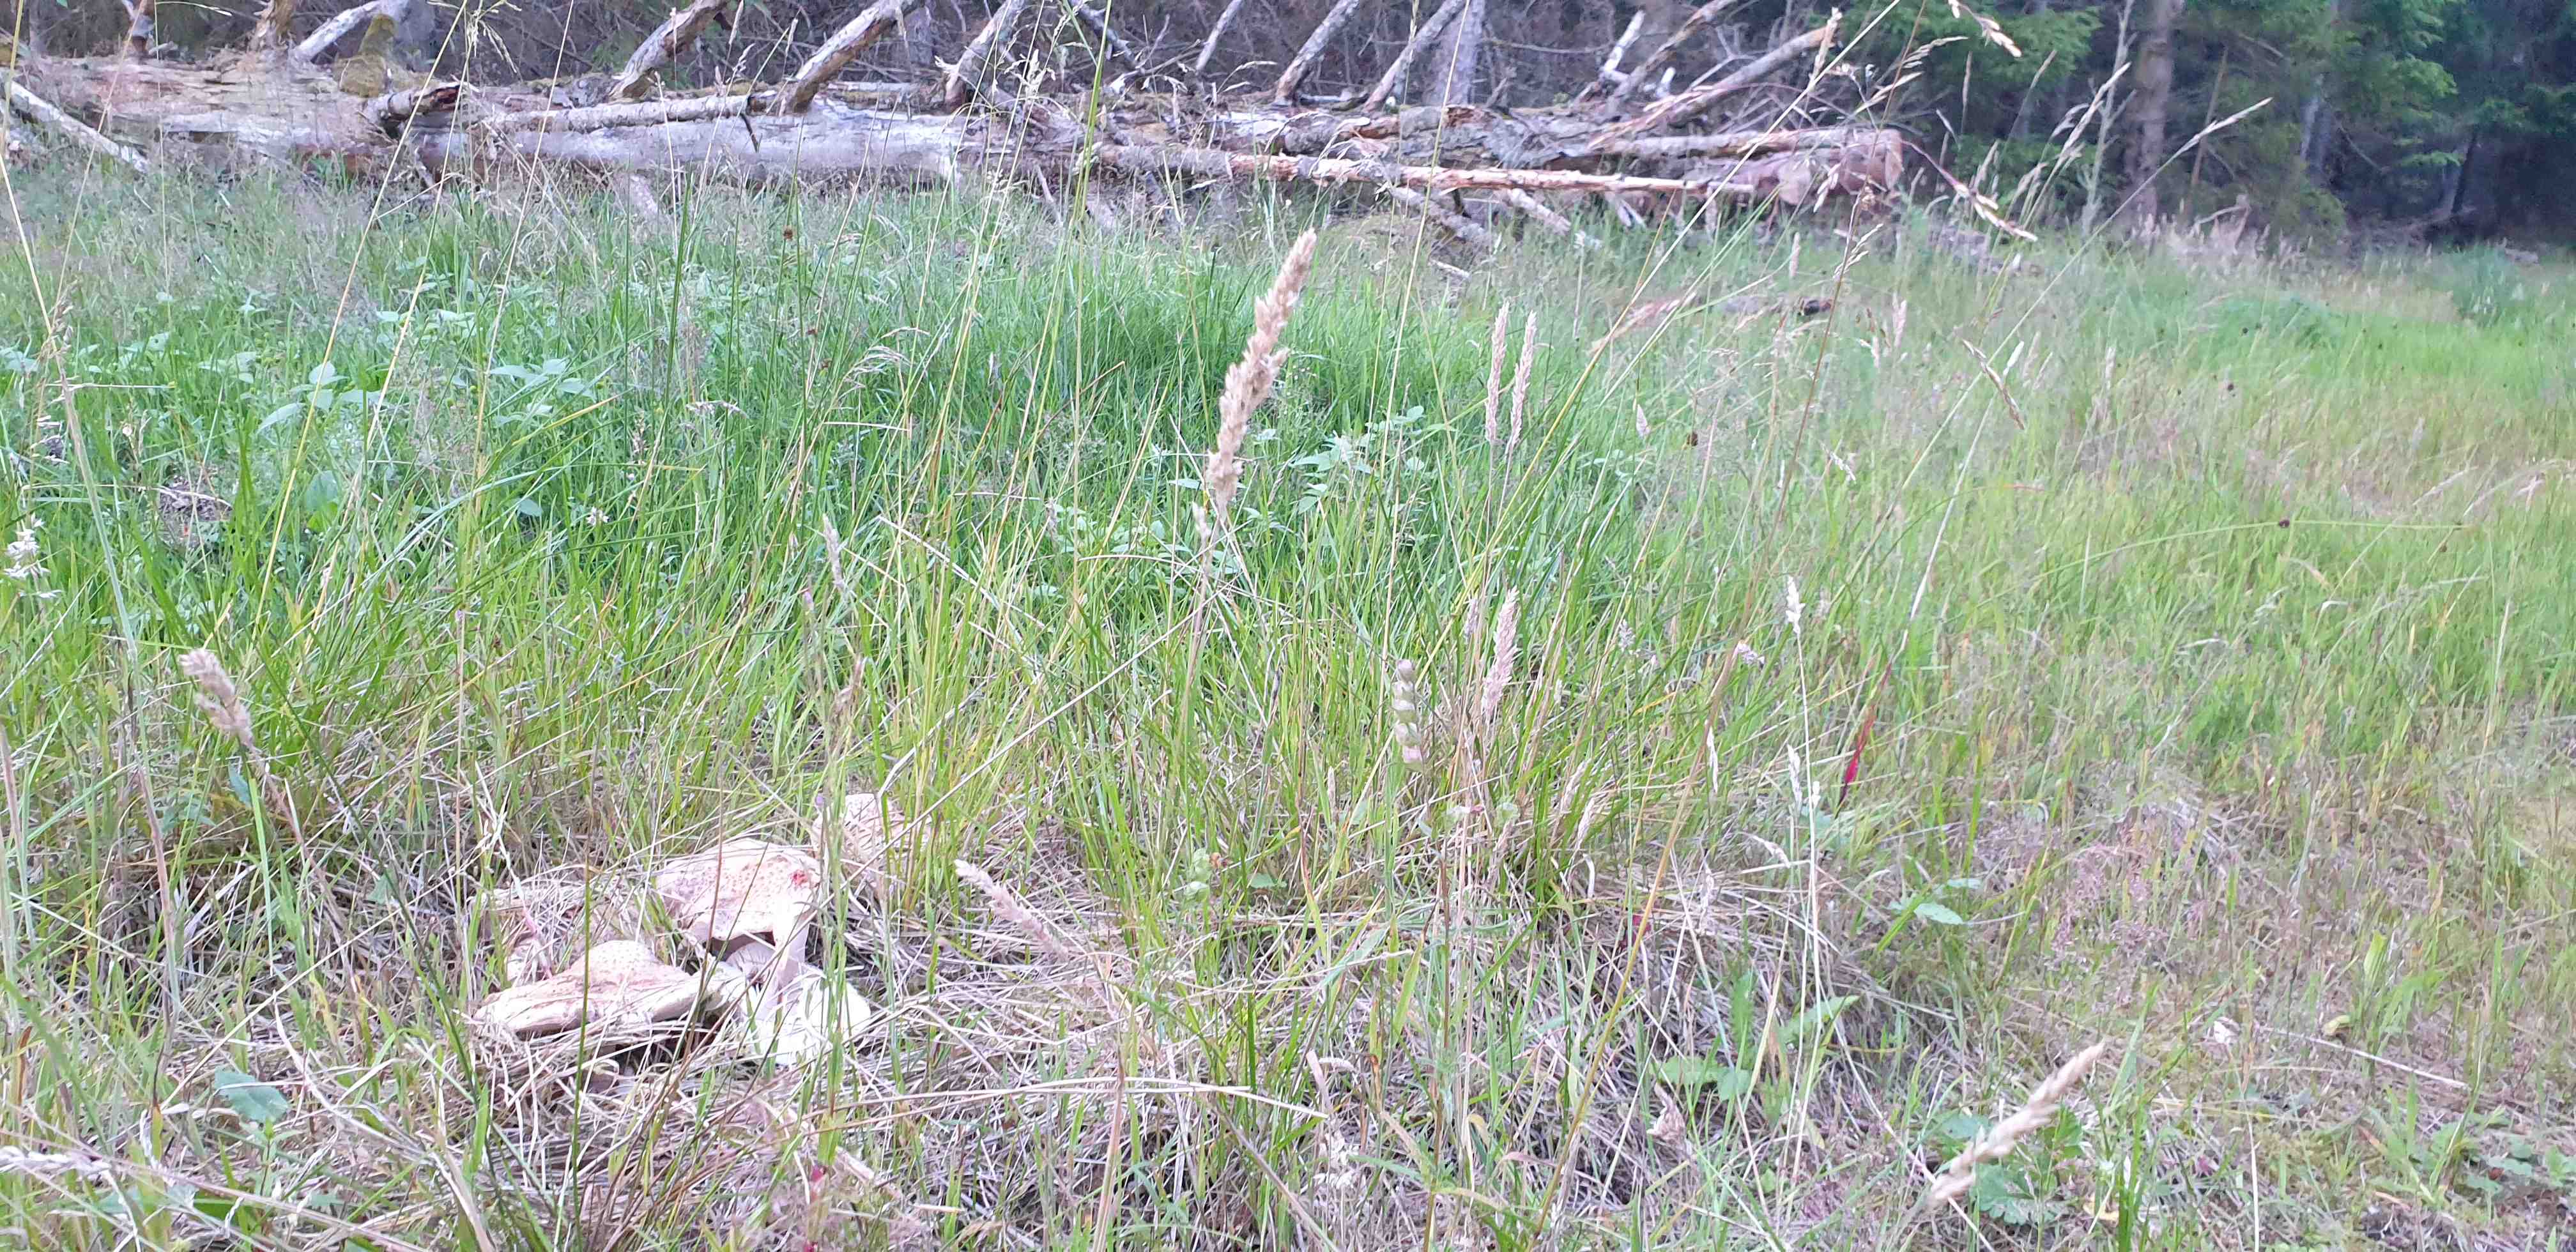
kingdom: Fungi
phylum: Basidiomycota
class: Agaricomycetes
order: Agaricales
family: Amanitaceae
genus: Amanita
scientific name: Amanita rubescens
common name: rødmende fluesvamp
